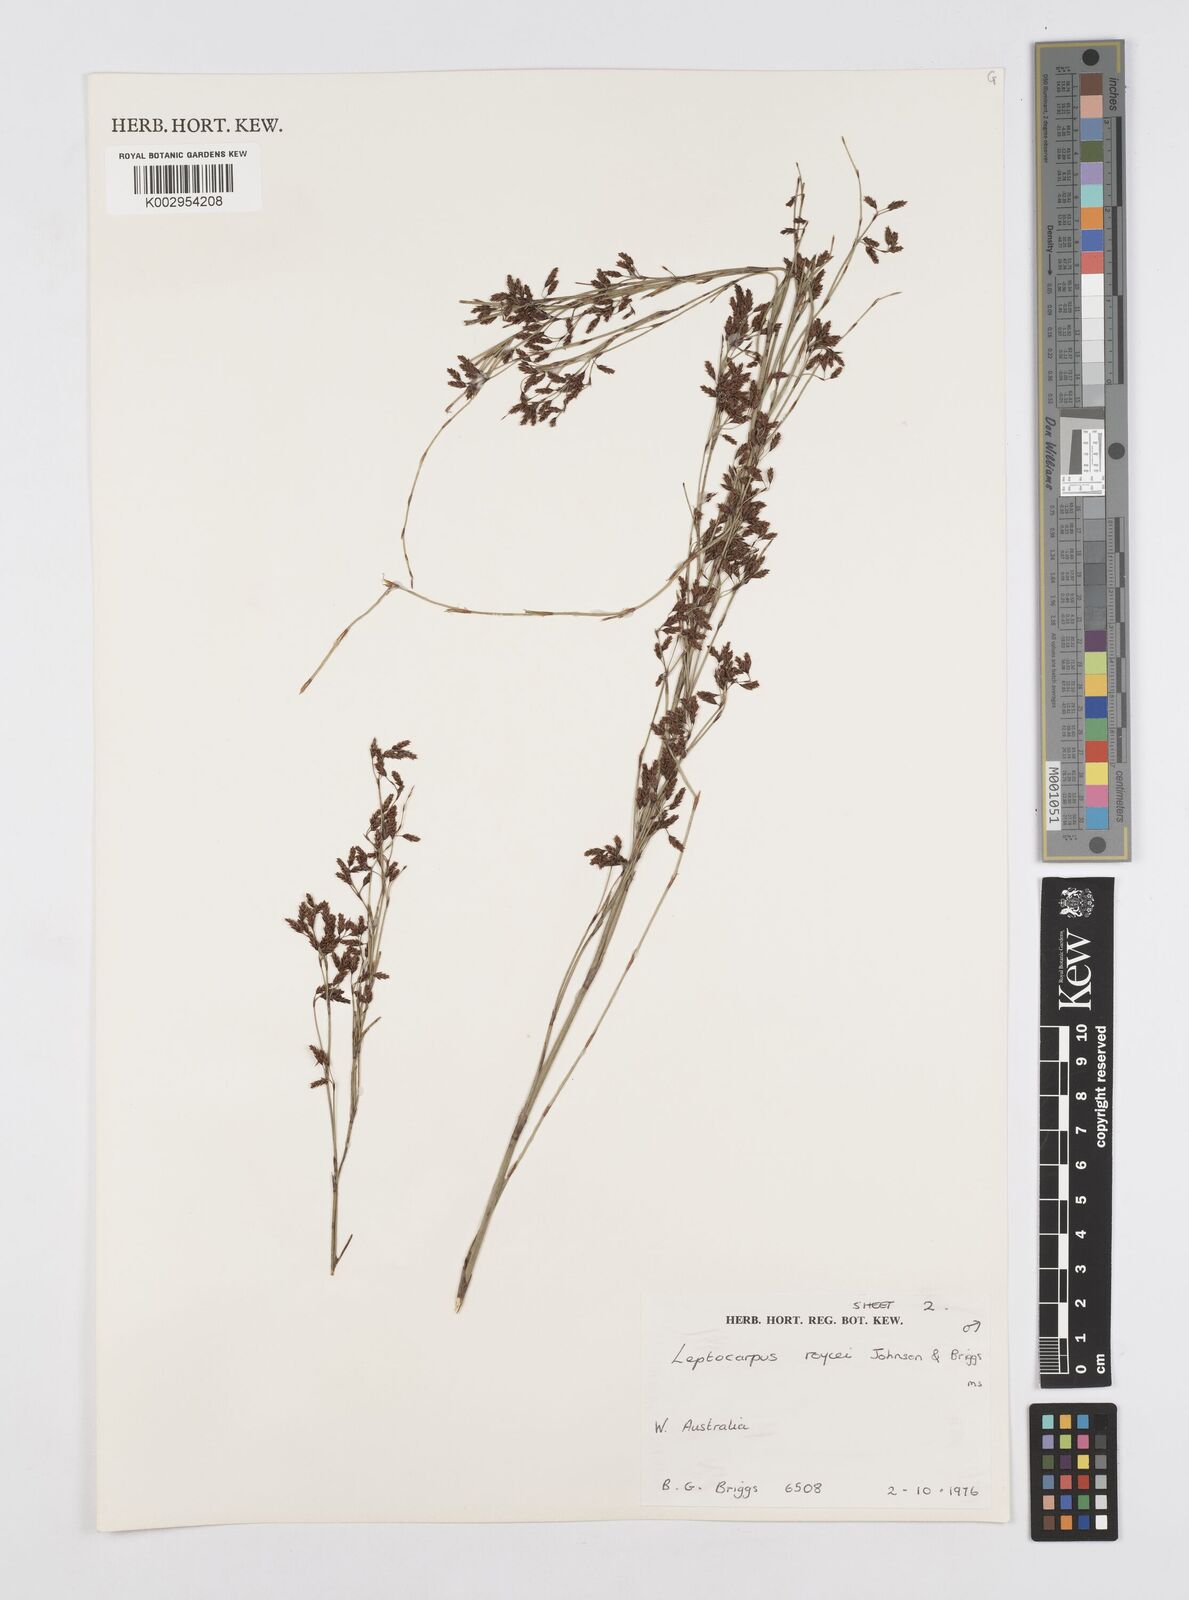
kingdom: Plantae
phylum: Tracheophyta
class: Liliopsida
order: Poales
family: Restionaceae
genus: Leptocarpus
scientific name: Leptocarpus roycei
